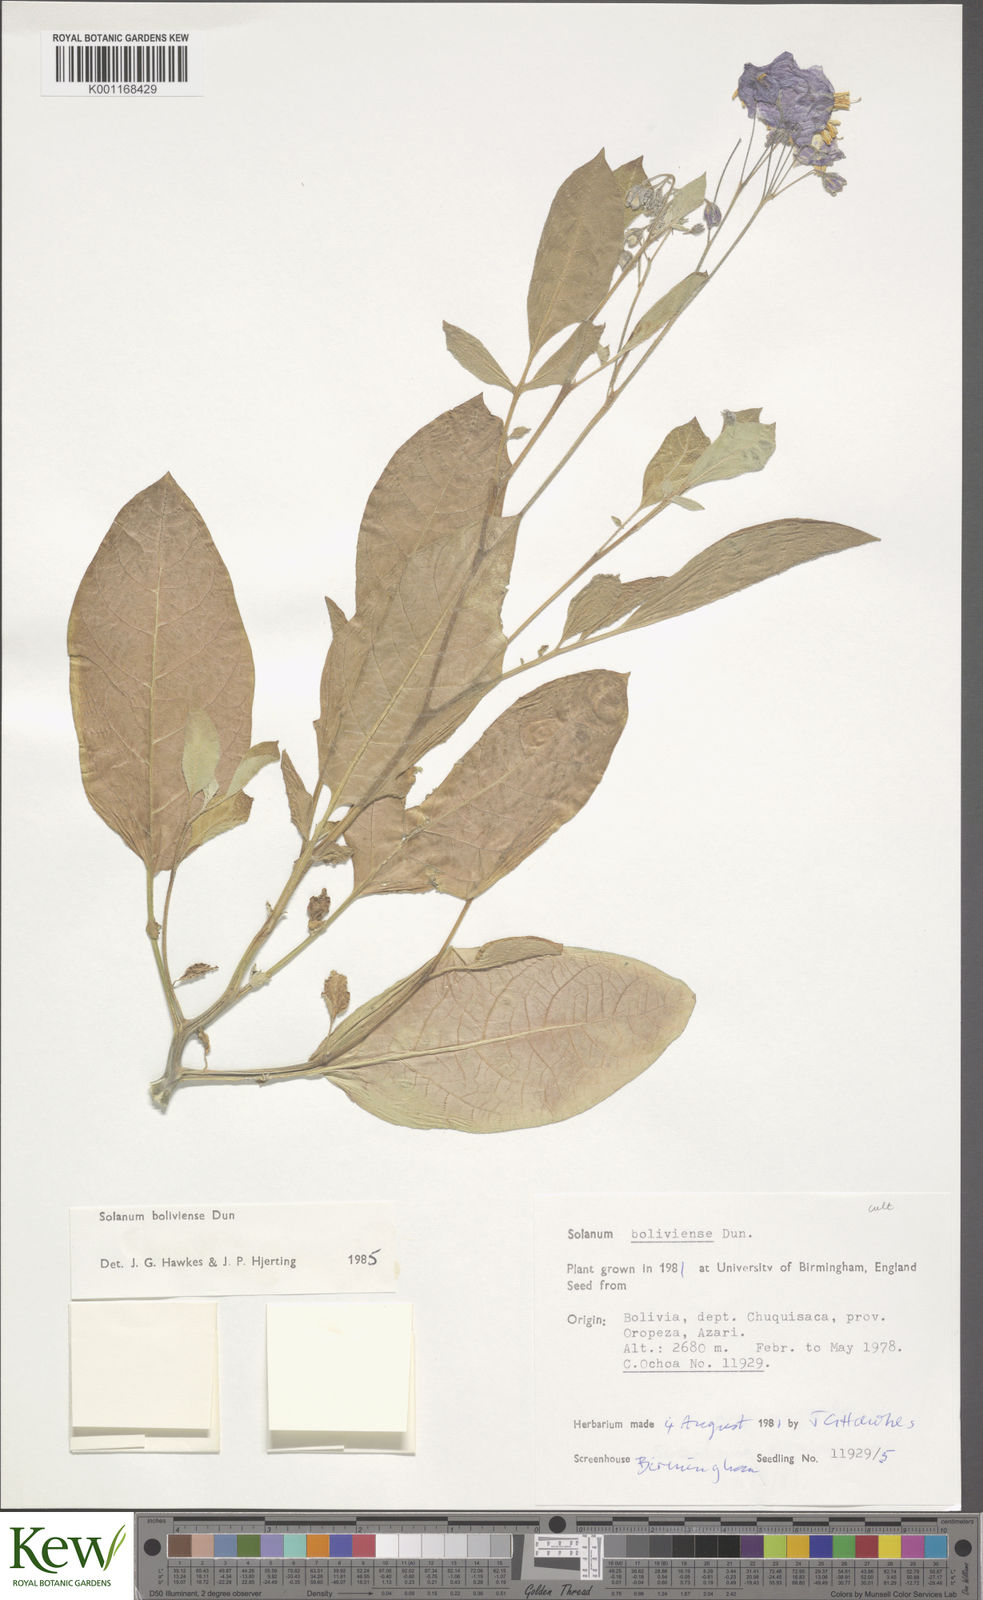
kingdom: Plantae
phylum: Tracheophyta
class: Magnoliopsida
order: Solanales
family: Solanaceae
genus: Solanum
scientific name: Solanum boliviense
